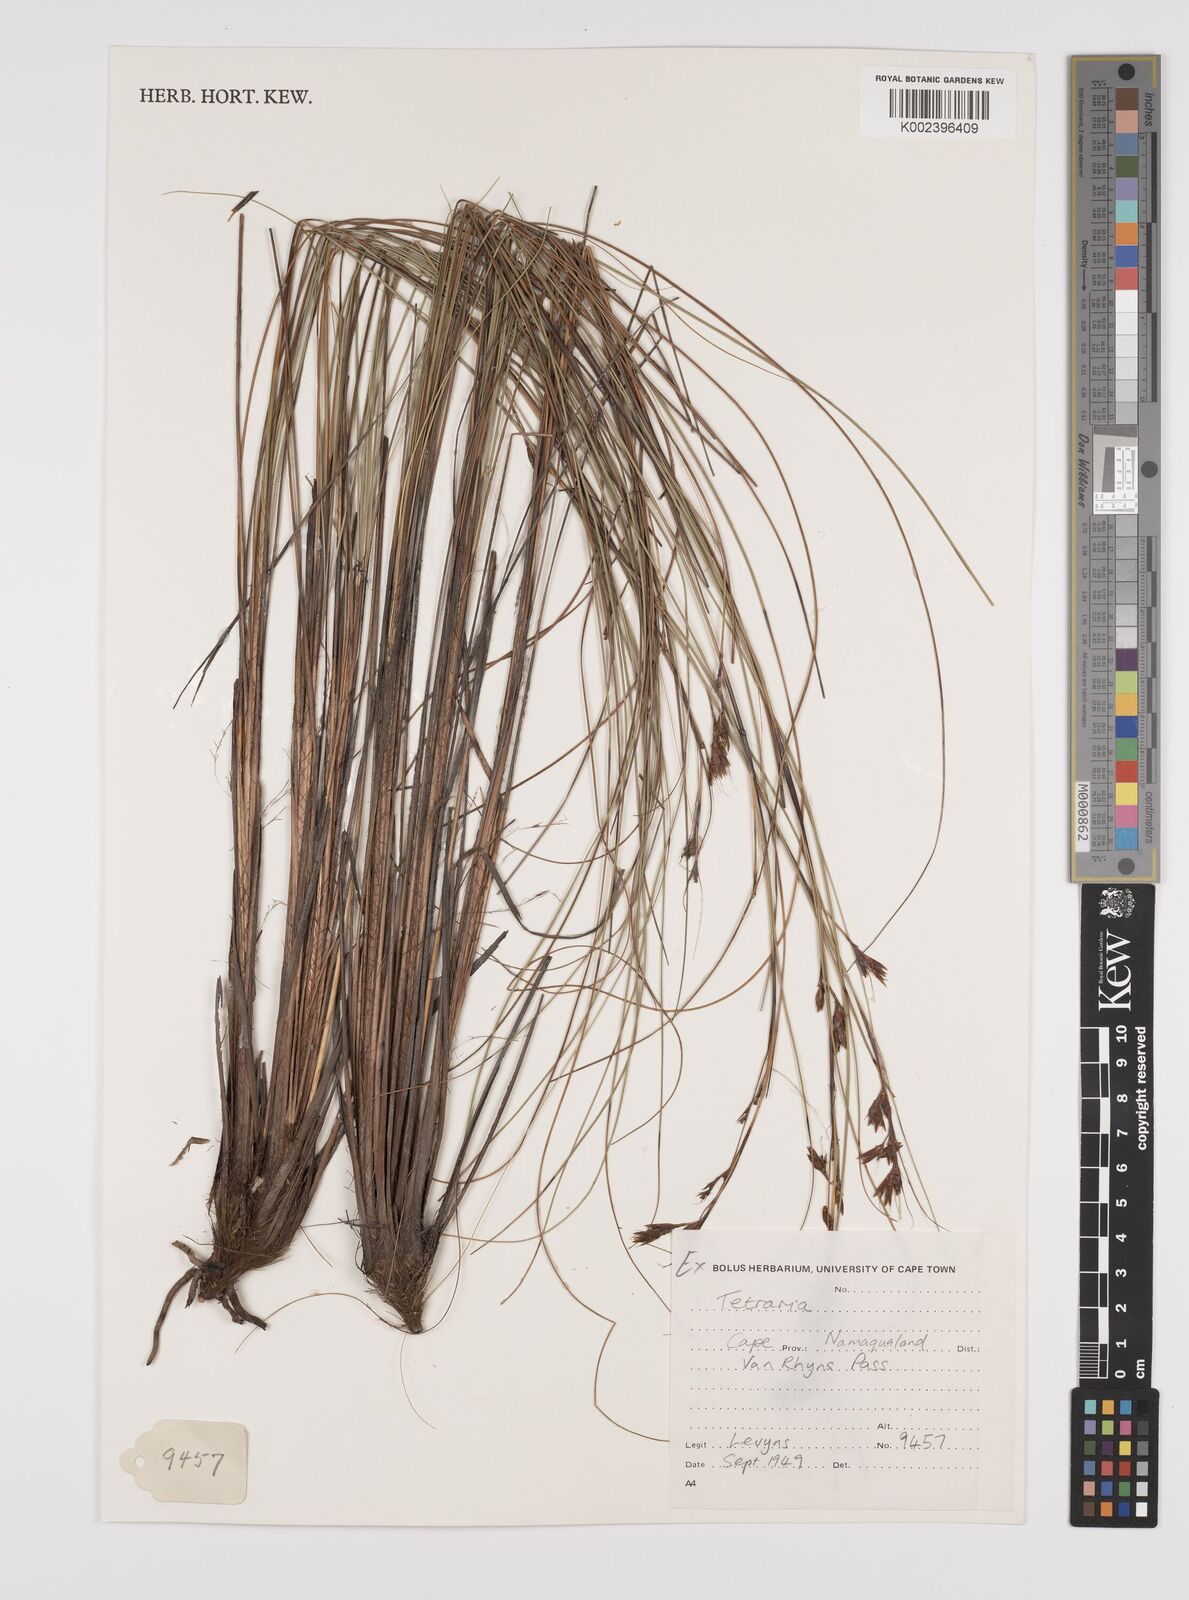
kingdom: Plantae
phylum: Tracheophyta
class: Liliopsida
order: Poales
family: Cyperaceae
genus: Tetraria
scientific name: Tetraria
